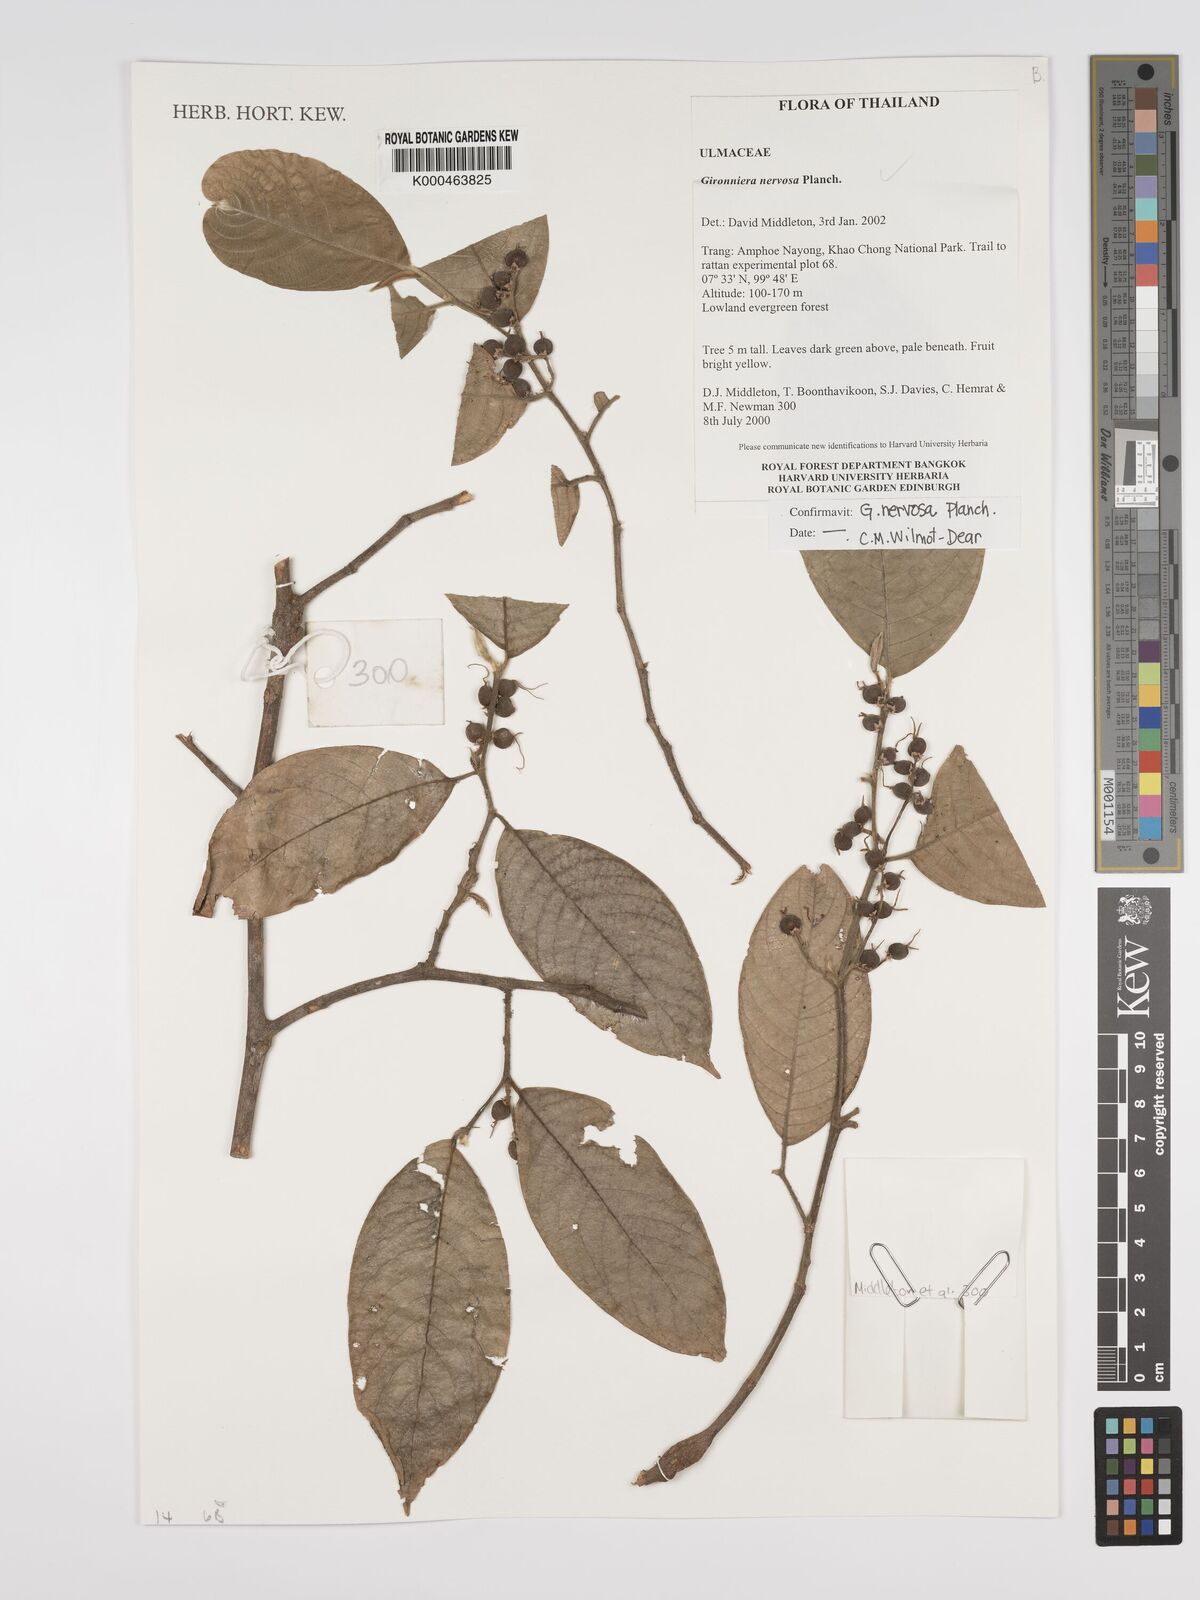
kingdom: Plantae
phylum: Tracheophyta
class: Magnoliopsida
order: Rosales
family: Cannabaceae
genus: Gironniera
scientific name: Gironniera nervosa
